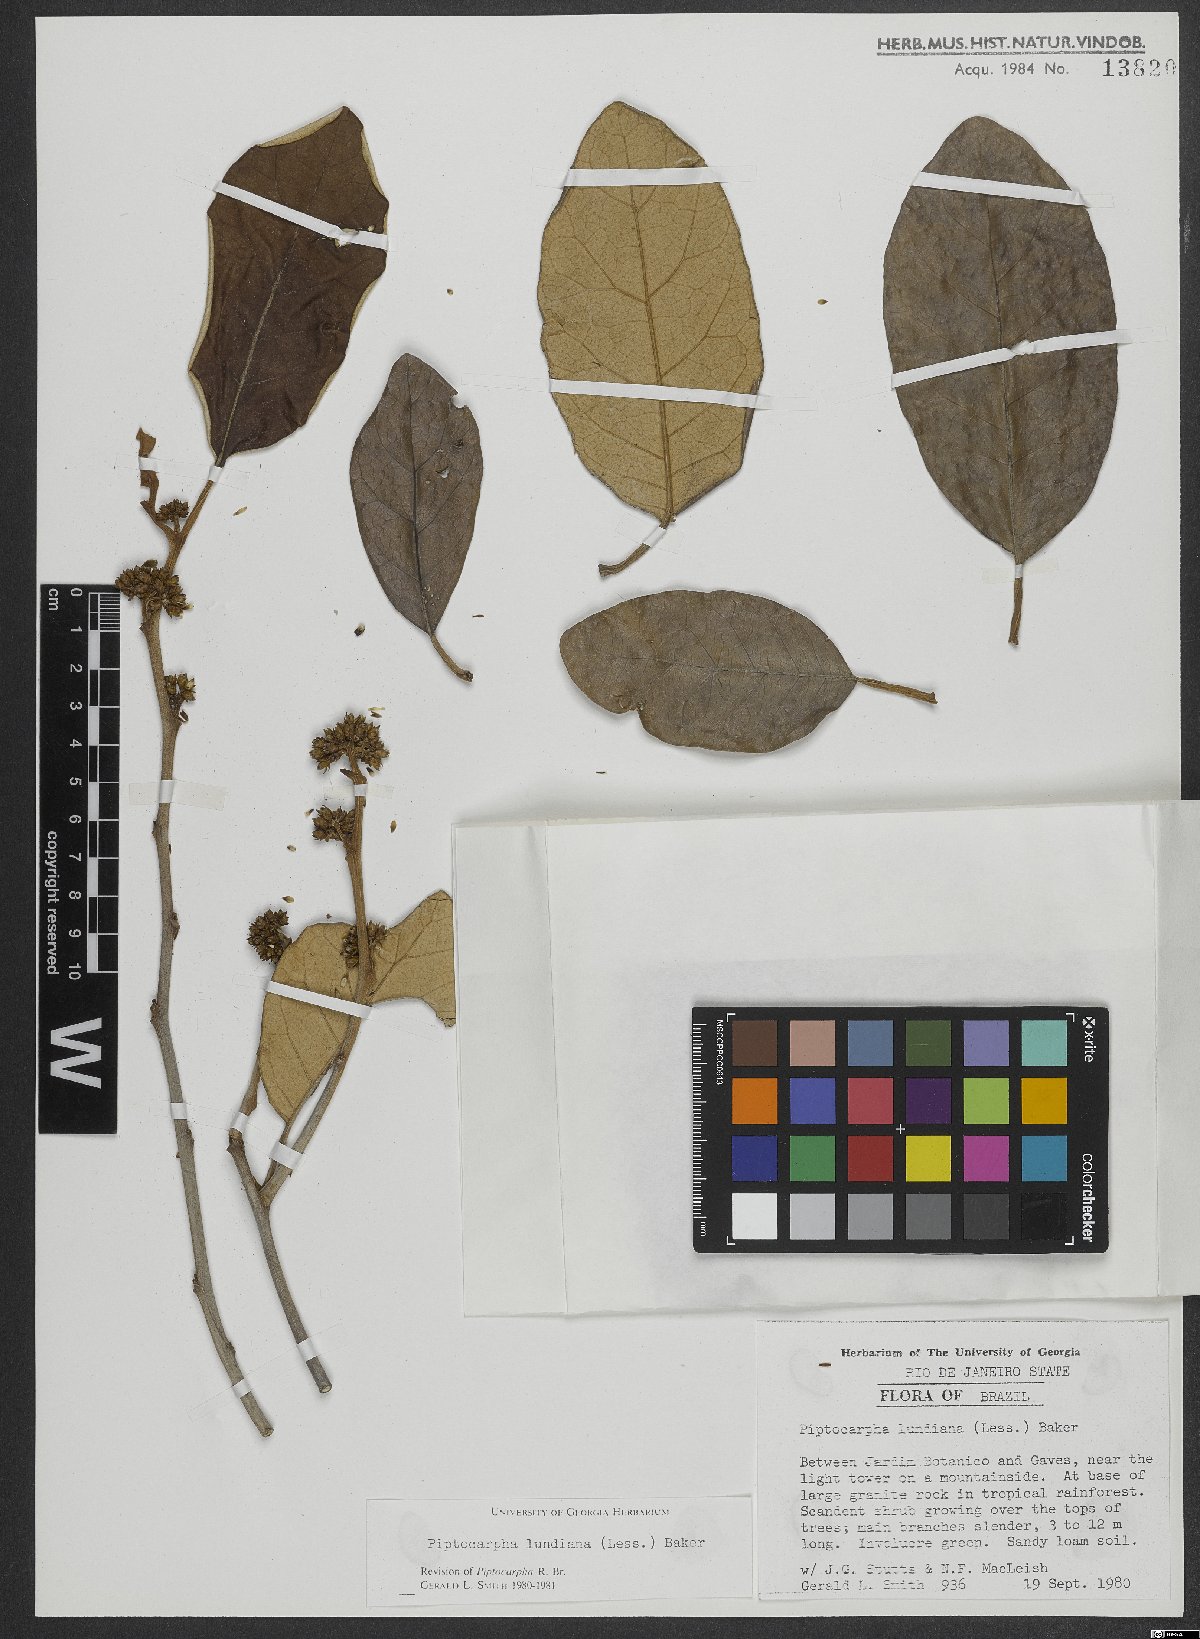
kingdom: Plantae
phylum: Tracheophyta
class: Magnoliopsida
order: Asterales
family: Asteraceae
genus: Piptocarpha
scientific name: Piptocarpha lundiana
